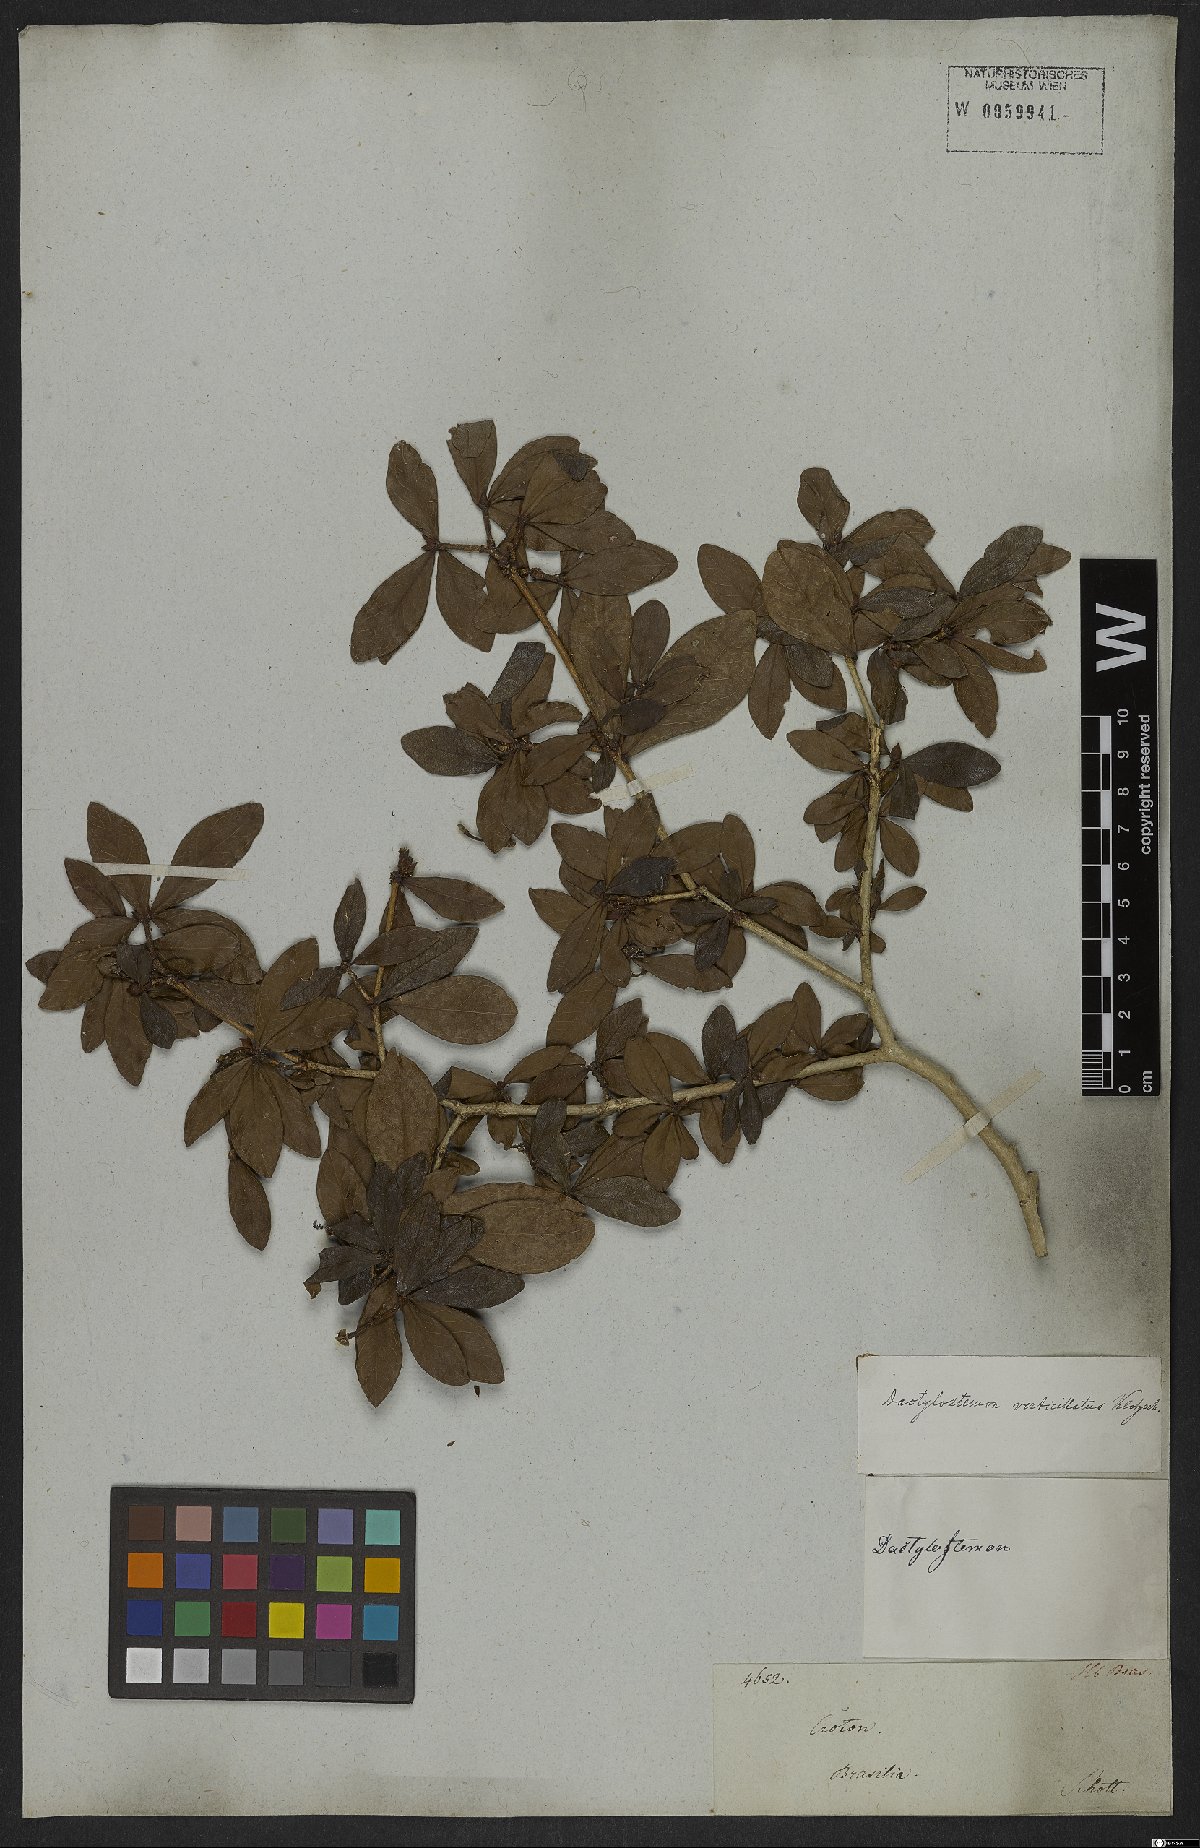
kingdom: Plantae
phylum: Tracheophyta
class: Magnoliopsida
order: Malpighiales
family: Euphorbiaceae
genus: Actinostemon
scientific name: Actinostemon verticillatus
